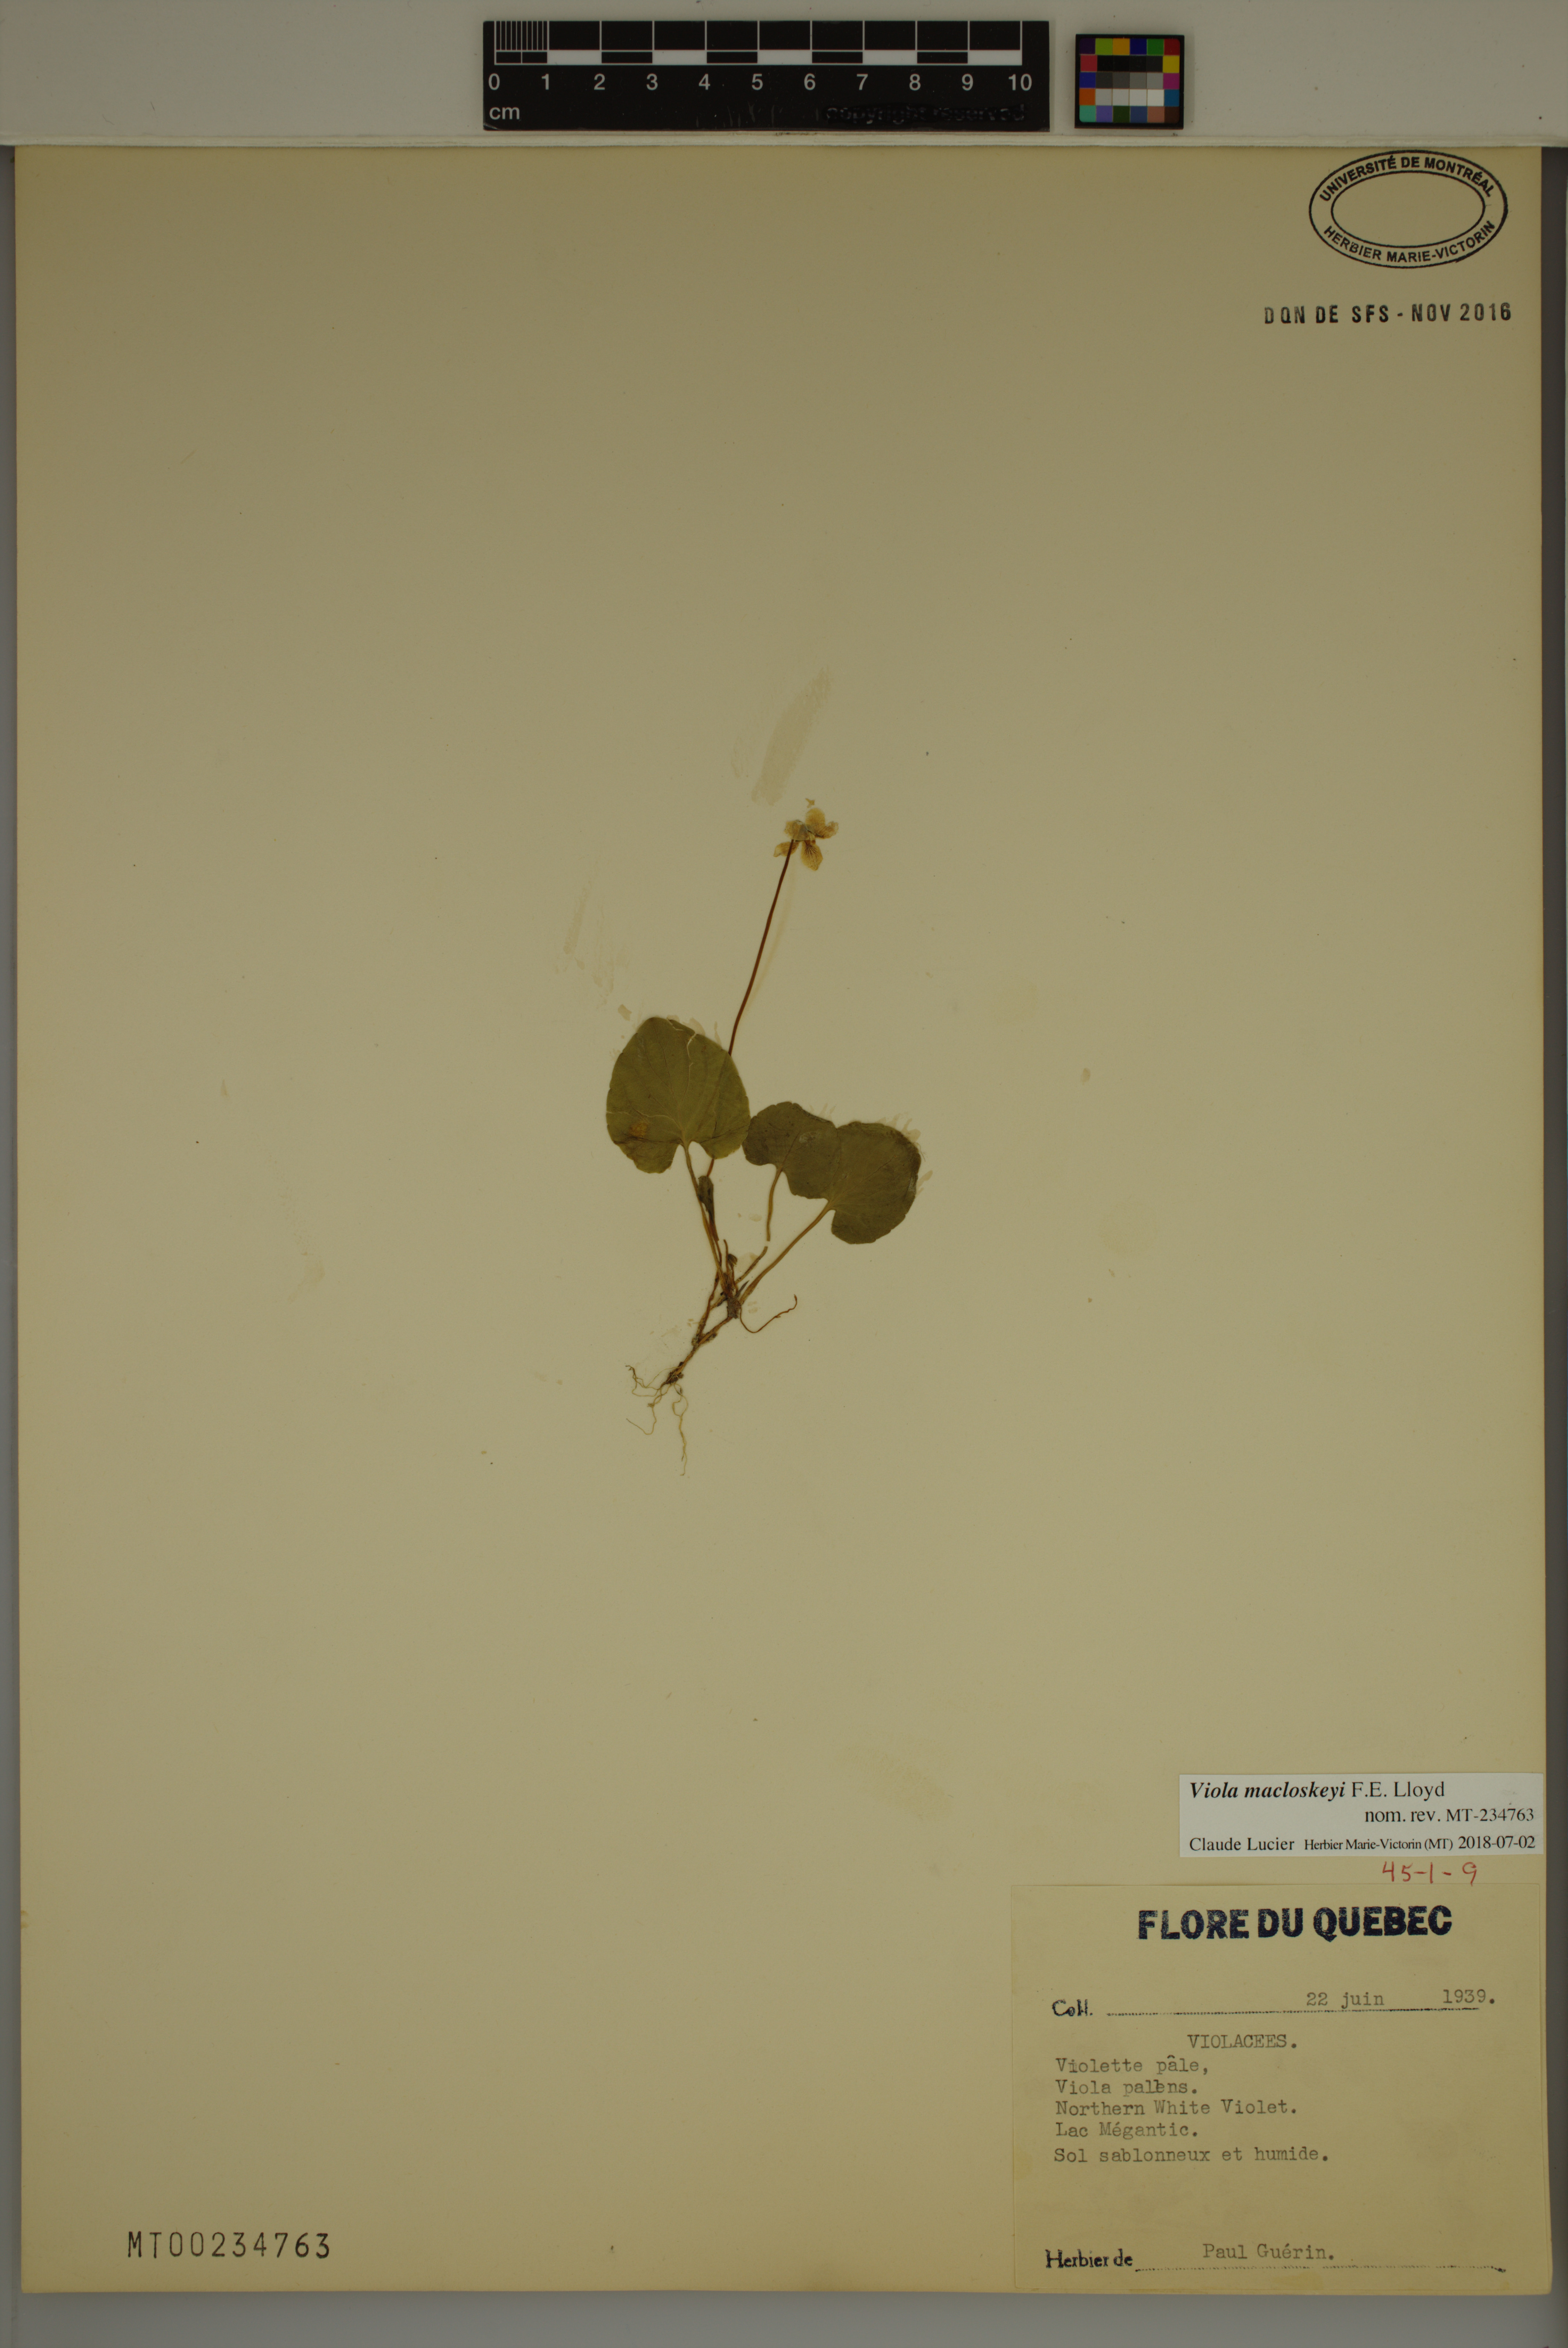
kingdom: Plantae
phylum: Tracheophyta
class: Magnoliopsida
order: Malpighiales
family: Violaceae
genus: Viola
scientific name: Viola macloskeyi
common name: Macloskey's violet
